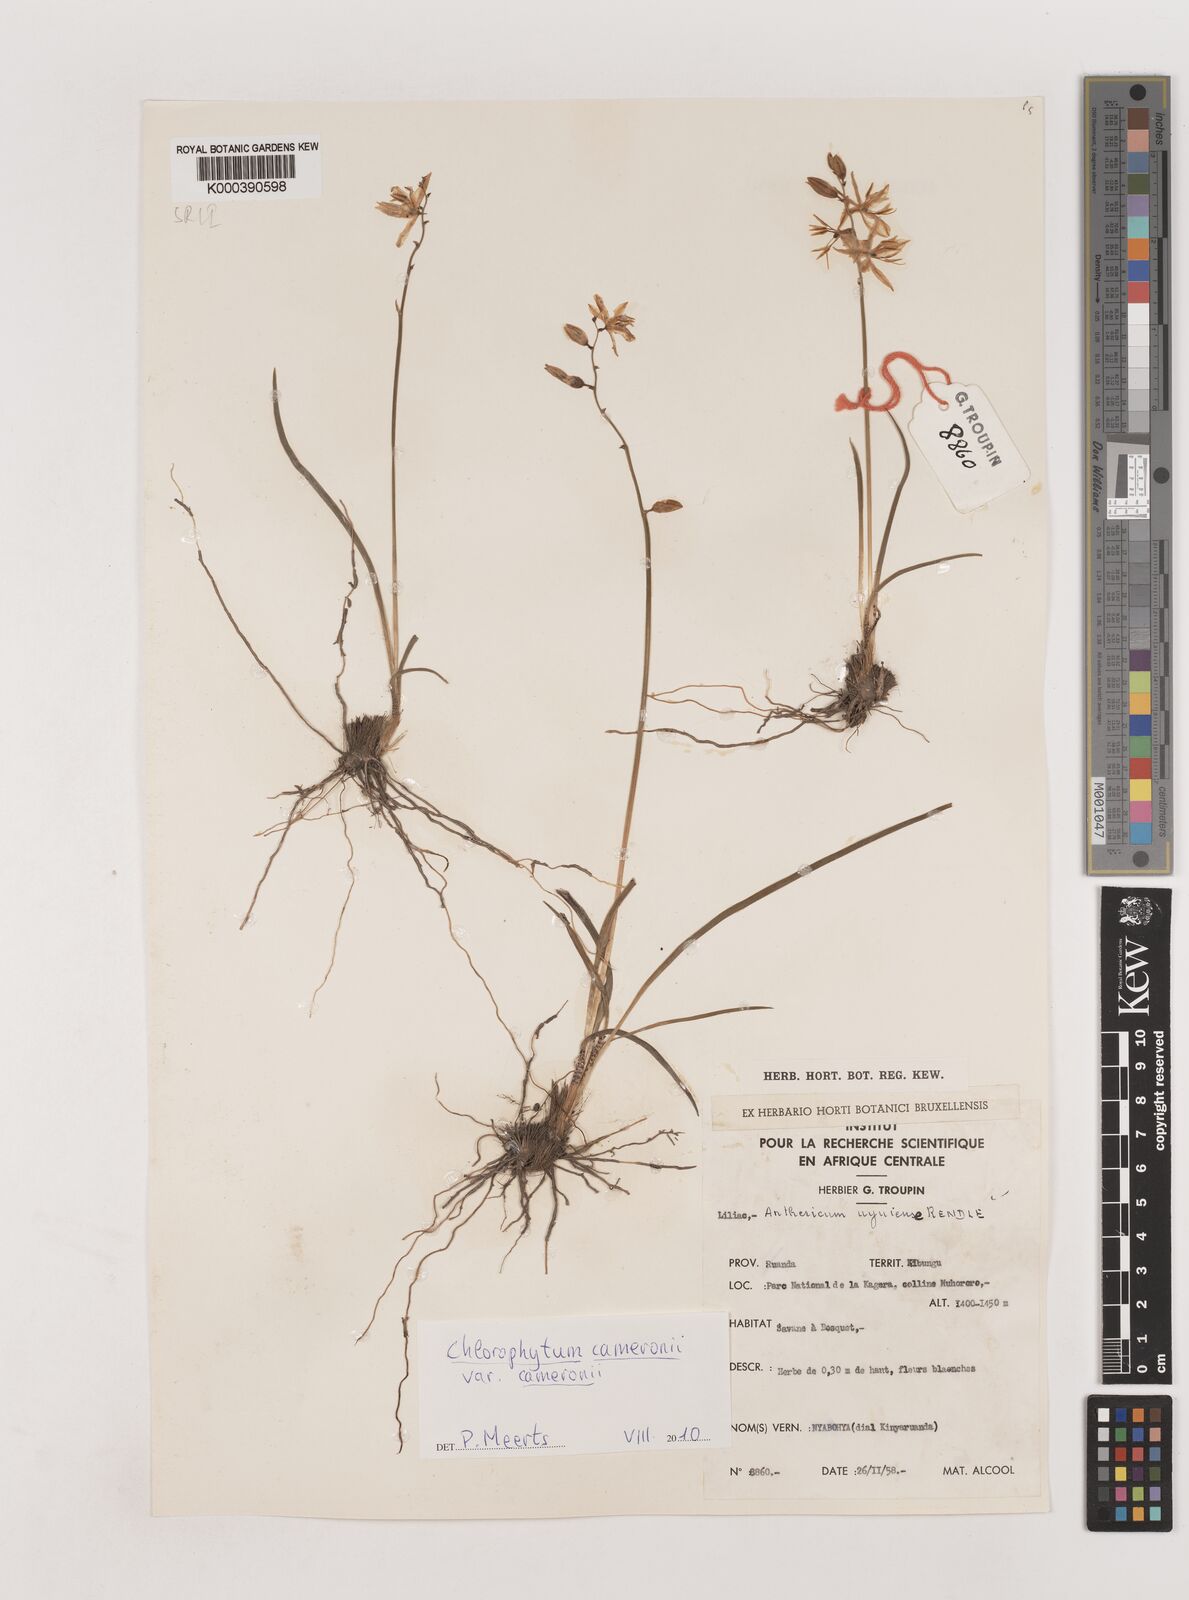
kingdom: Plantae
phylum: Tracheophyta
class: Liliopsida
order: Asparagales
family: Asparagaceae
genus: Chlorophytum
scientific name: Chlorophytum cameronii
